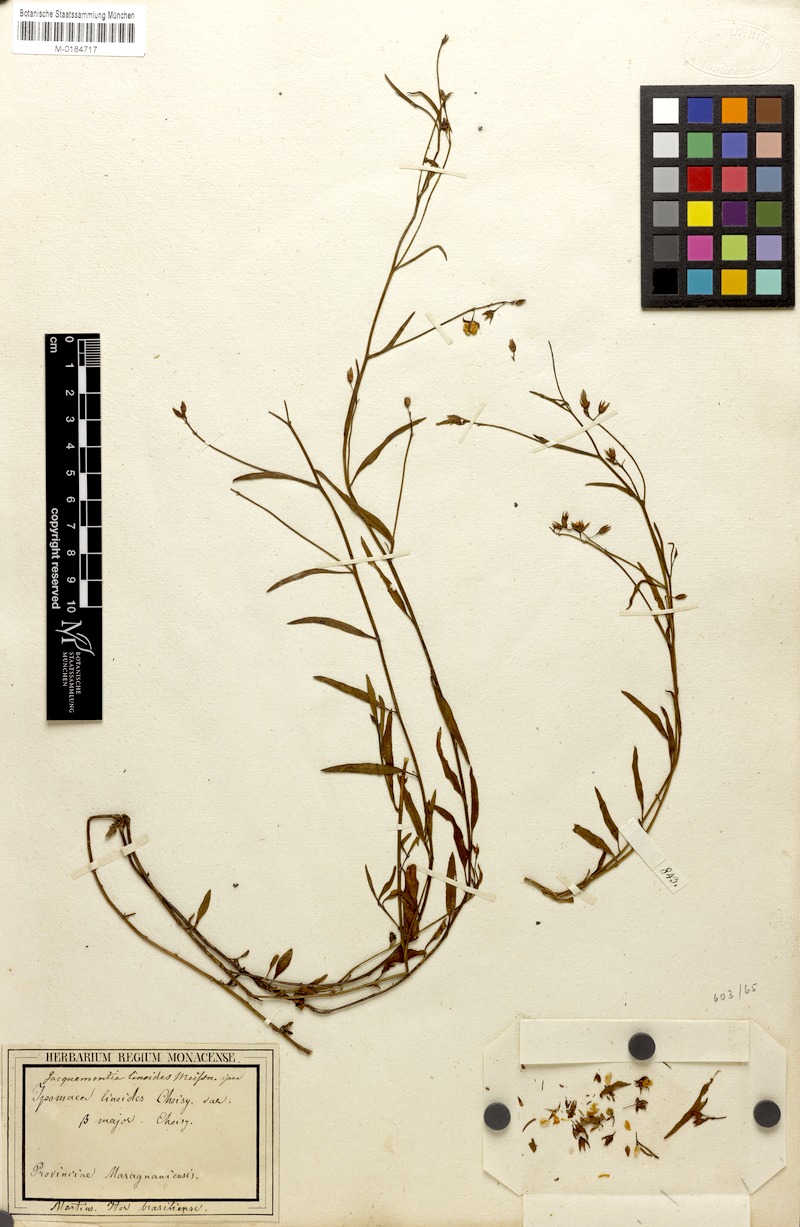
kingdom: Plantae
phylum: Tracheophyta
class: Magnoliopsida
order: Solanales
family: Convolvulaceae
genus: Jacquemontia
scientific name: Jacquemontia linoides
